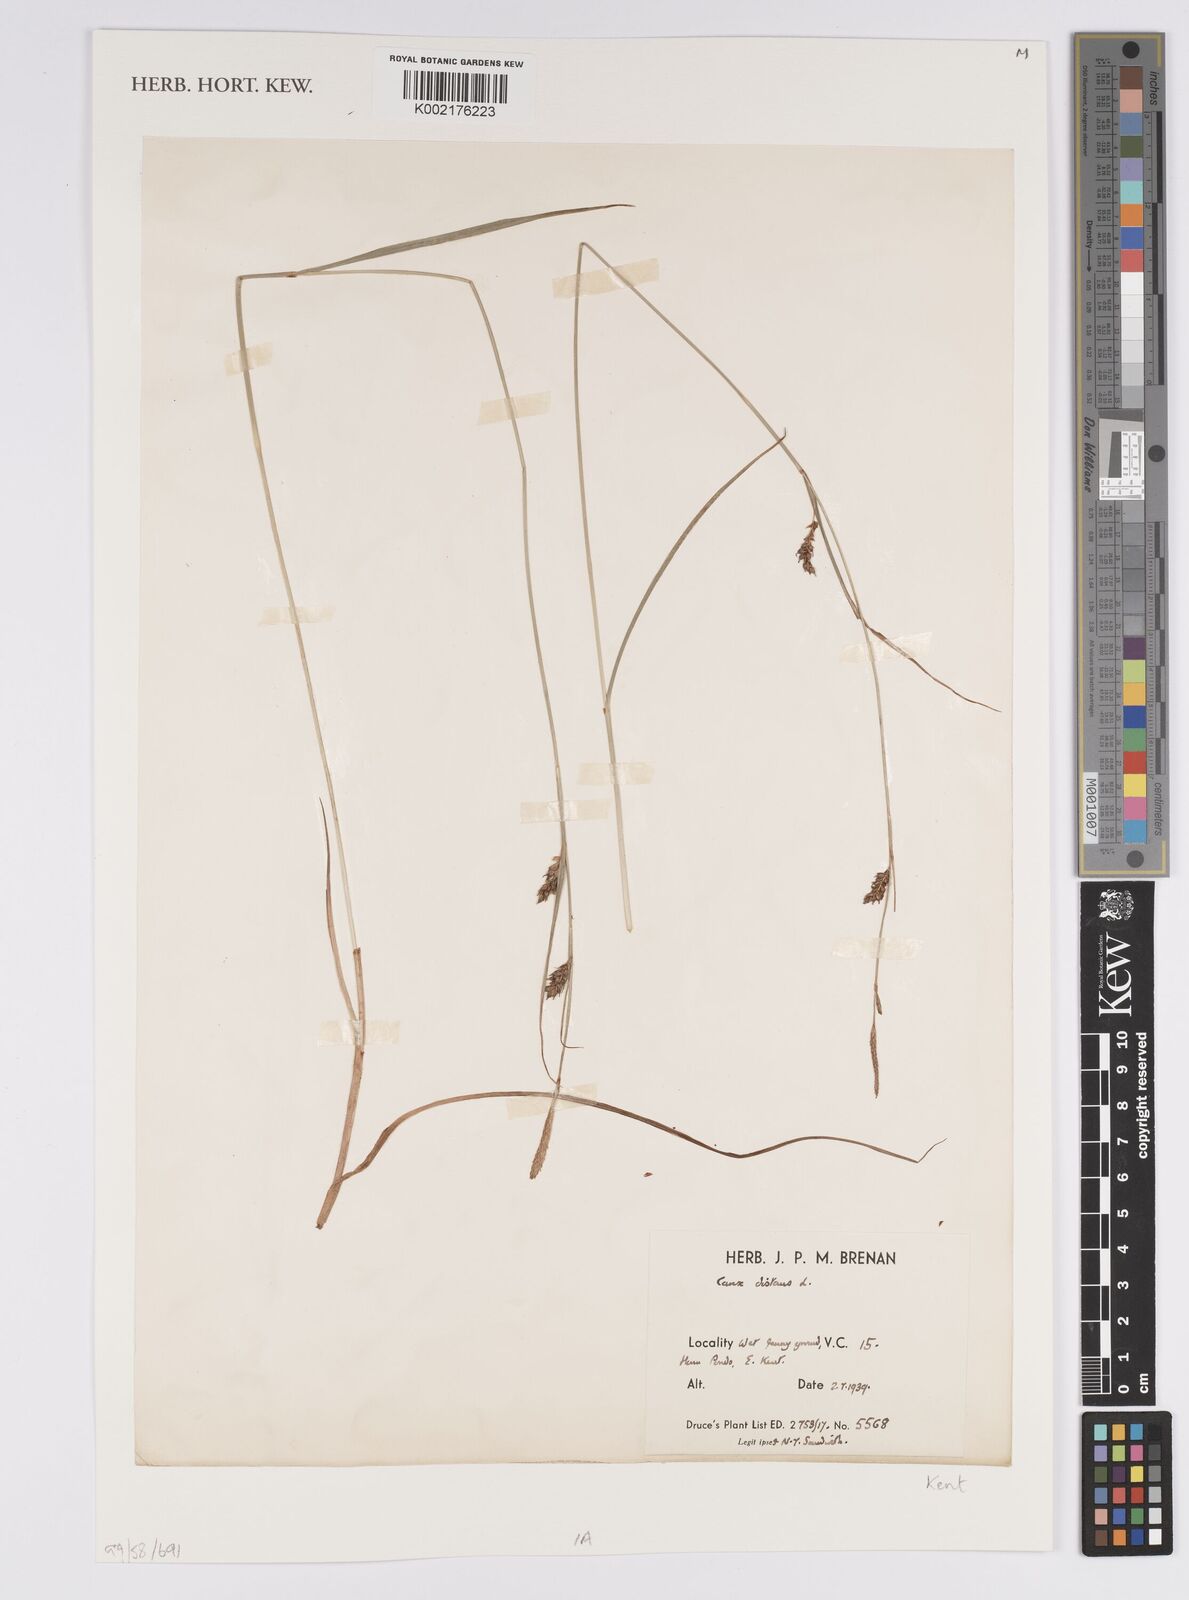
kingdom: Plantae
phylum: Tracheophyta
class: Liliopsida
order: Poales
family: Cyperaceae
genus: Carex
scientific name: Carex distans
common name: Distant sedge
